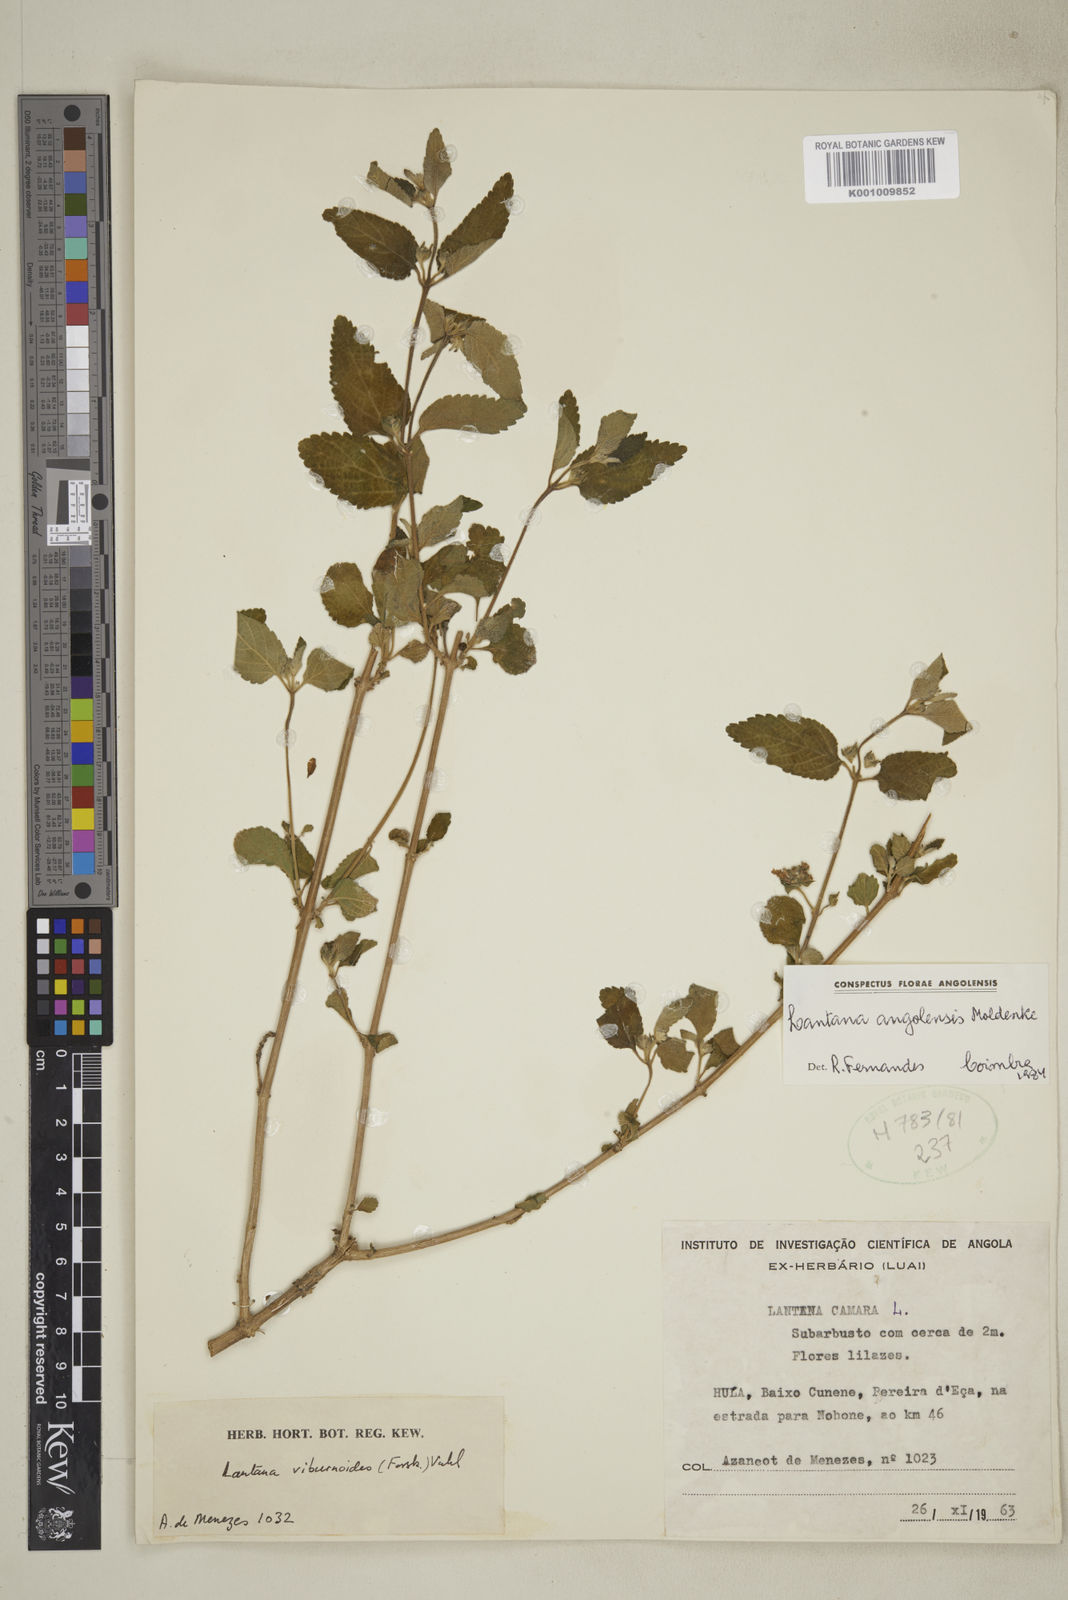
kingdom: Plantae
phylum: Tracheophyta
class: Magnoliopsida
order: Lamiales
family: Verbenaceae
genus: Lantana
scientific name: Lantana angolensis
